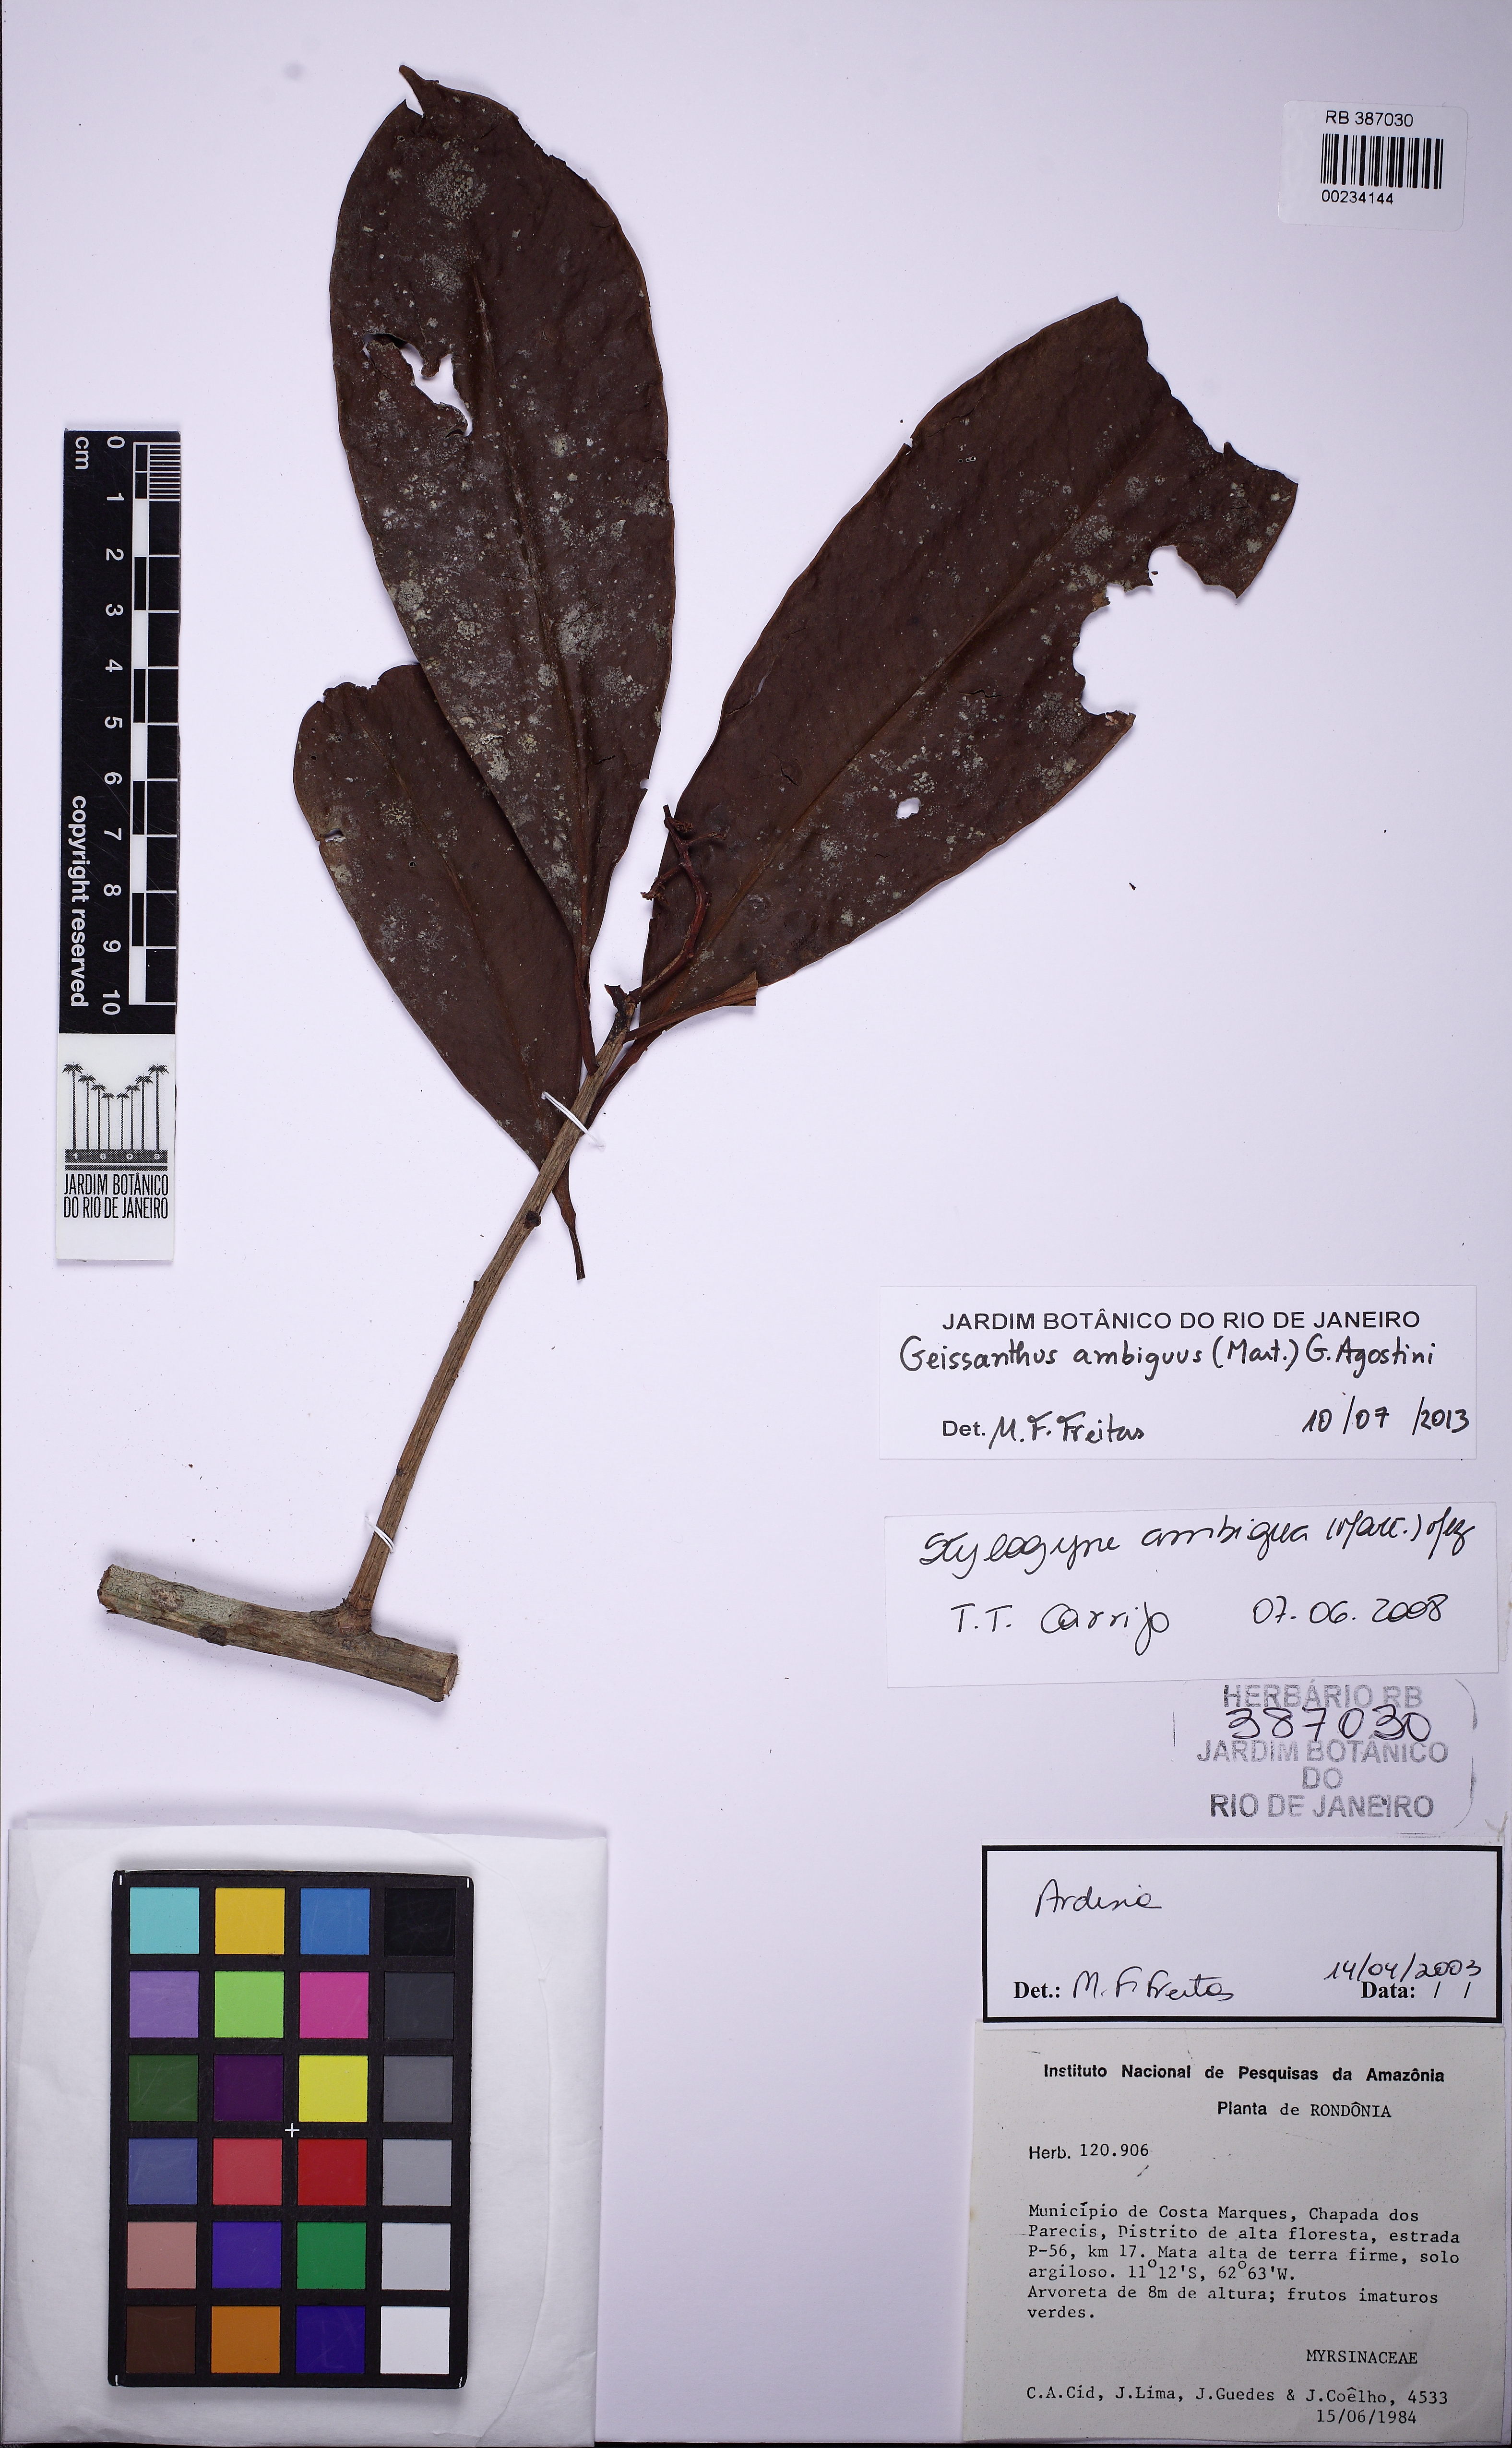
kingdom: Plantae
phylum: Tracheophyta
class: Magnoliopsida
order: Ericales
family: Primulaceae
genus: Geissanthus
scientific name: Geissanthus ambigua
